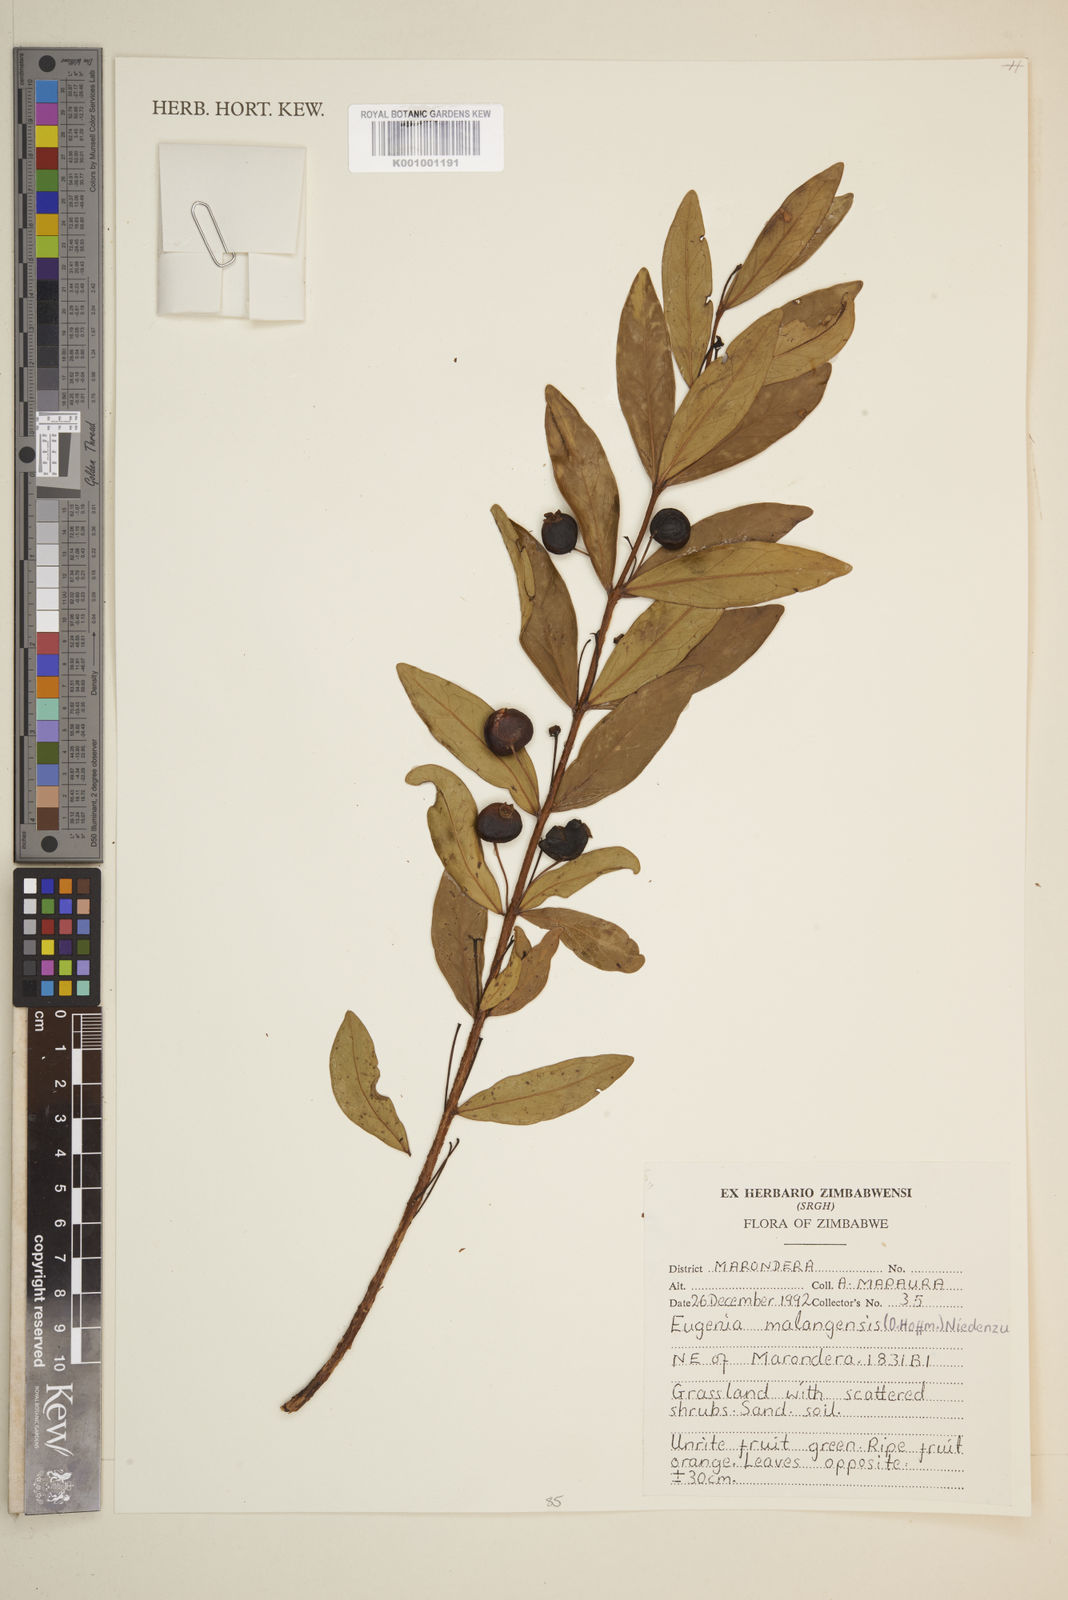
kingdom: Plantae
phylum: Tracheophyta
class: Magnoliopsida
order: Myrtales
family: Myrtaceae
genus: Eugenia
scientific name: Eugenia malangensis
